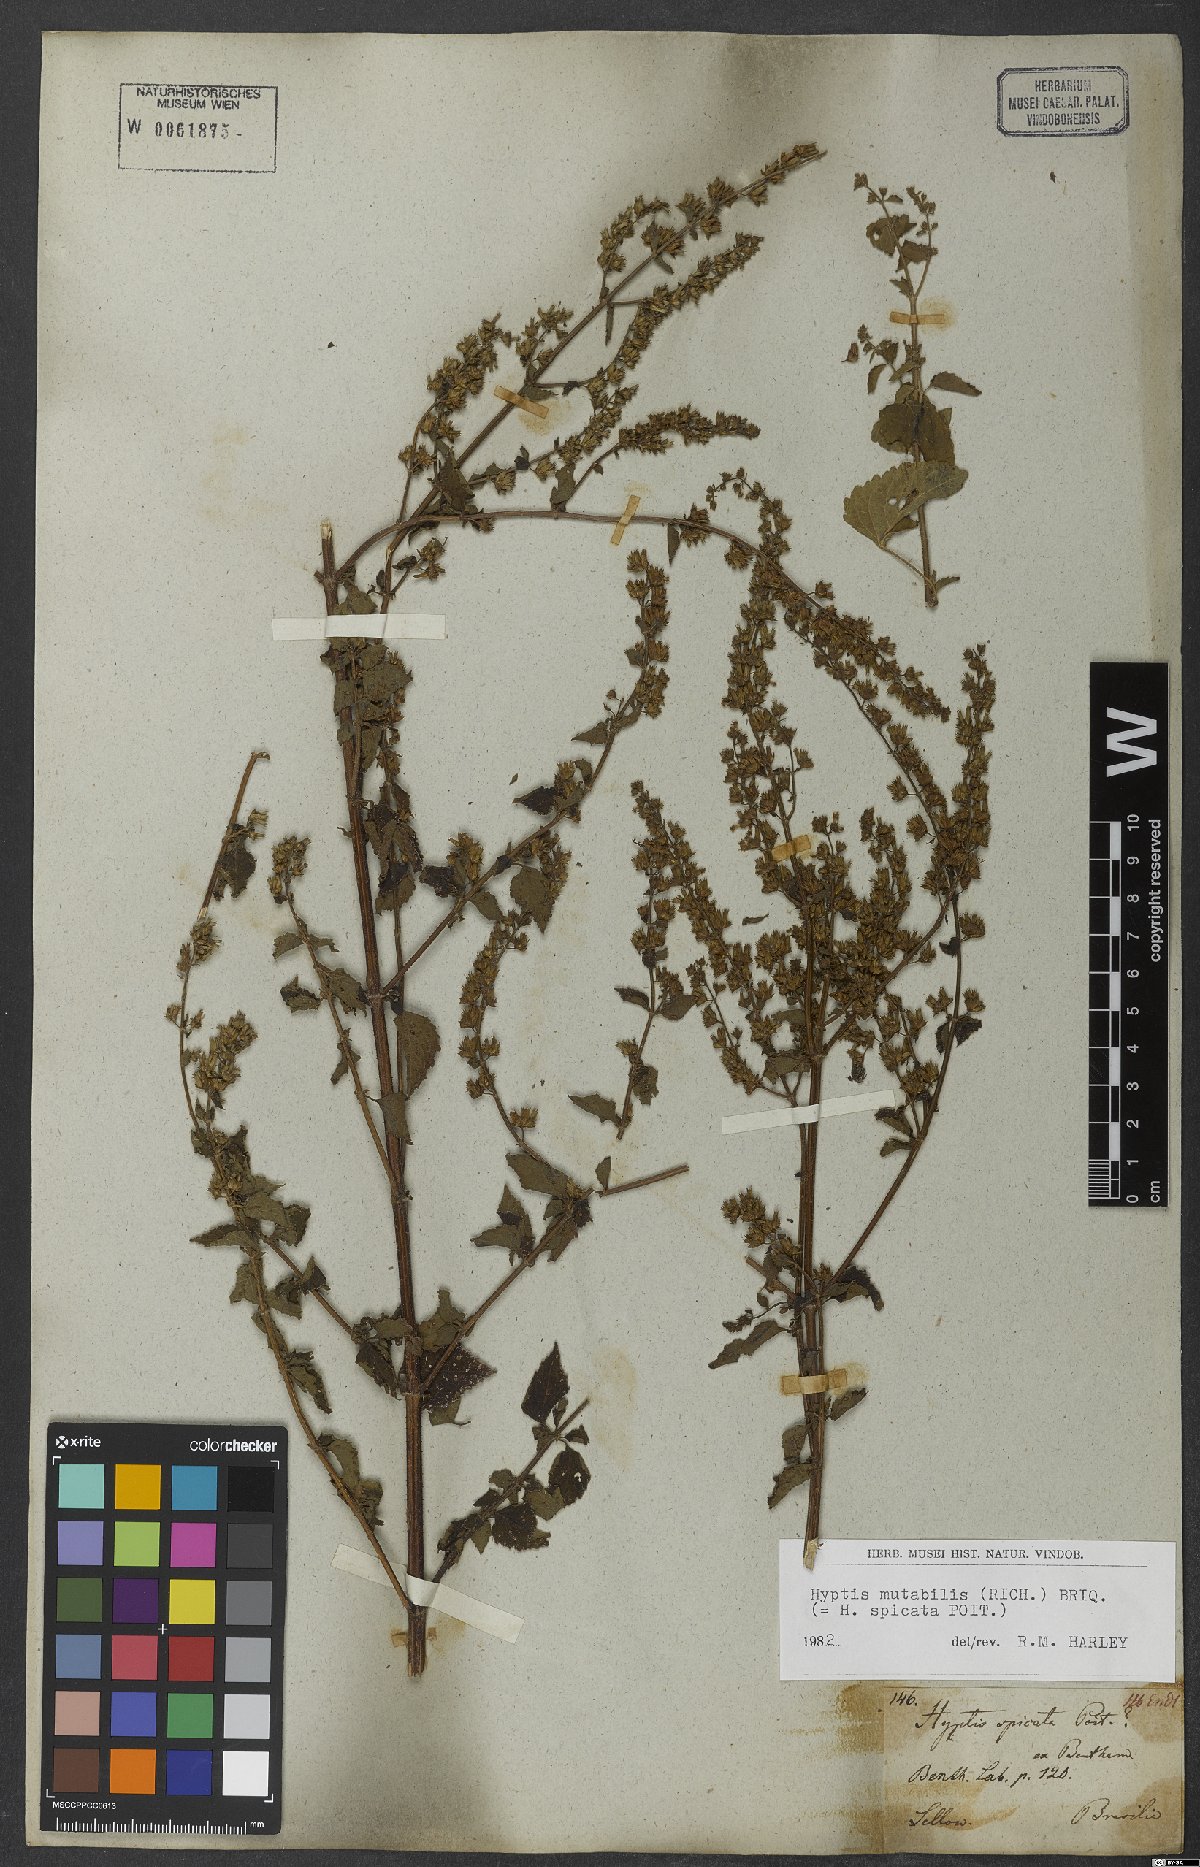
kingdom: Plantae
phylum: Tracheophyta
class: Magnoliopsida
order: Lamiales
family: Lamiaceae
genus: Cantinoa
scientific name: Cantinoa mutabilis
